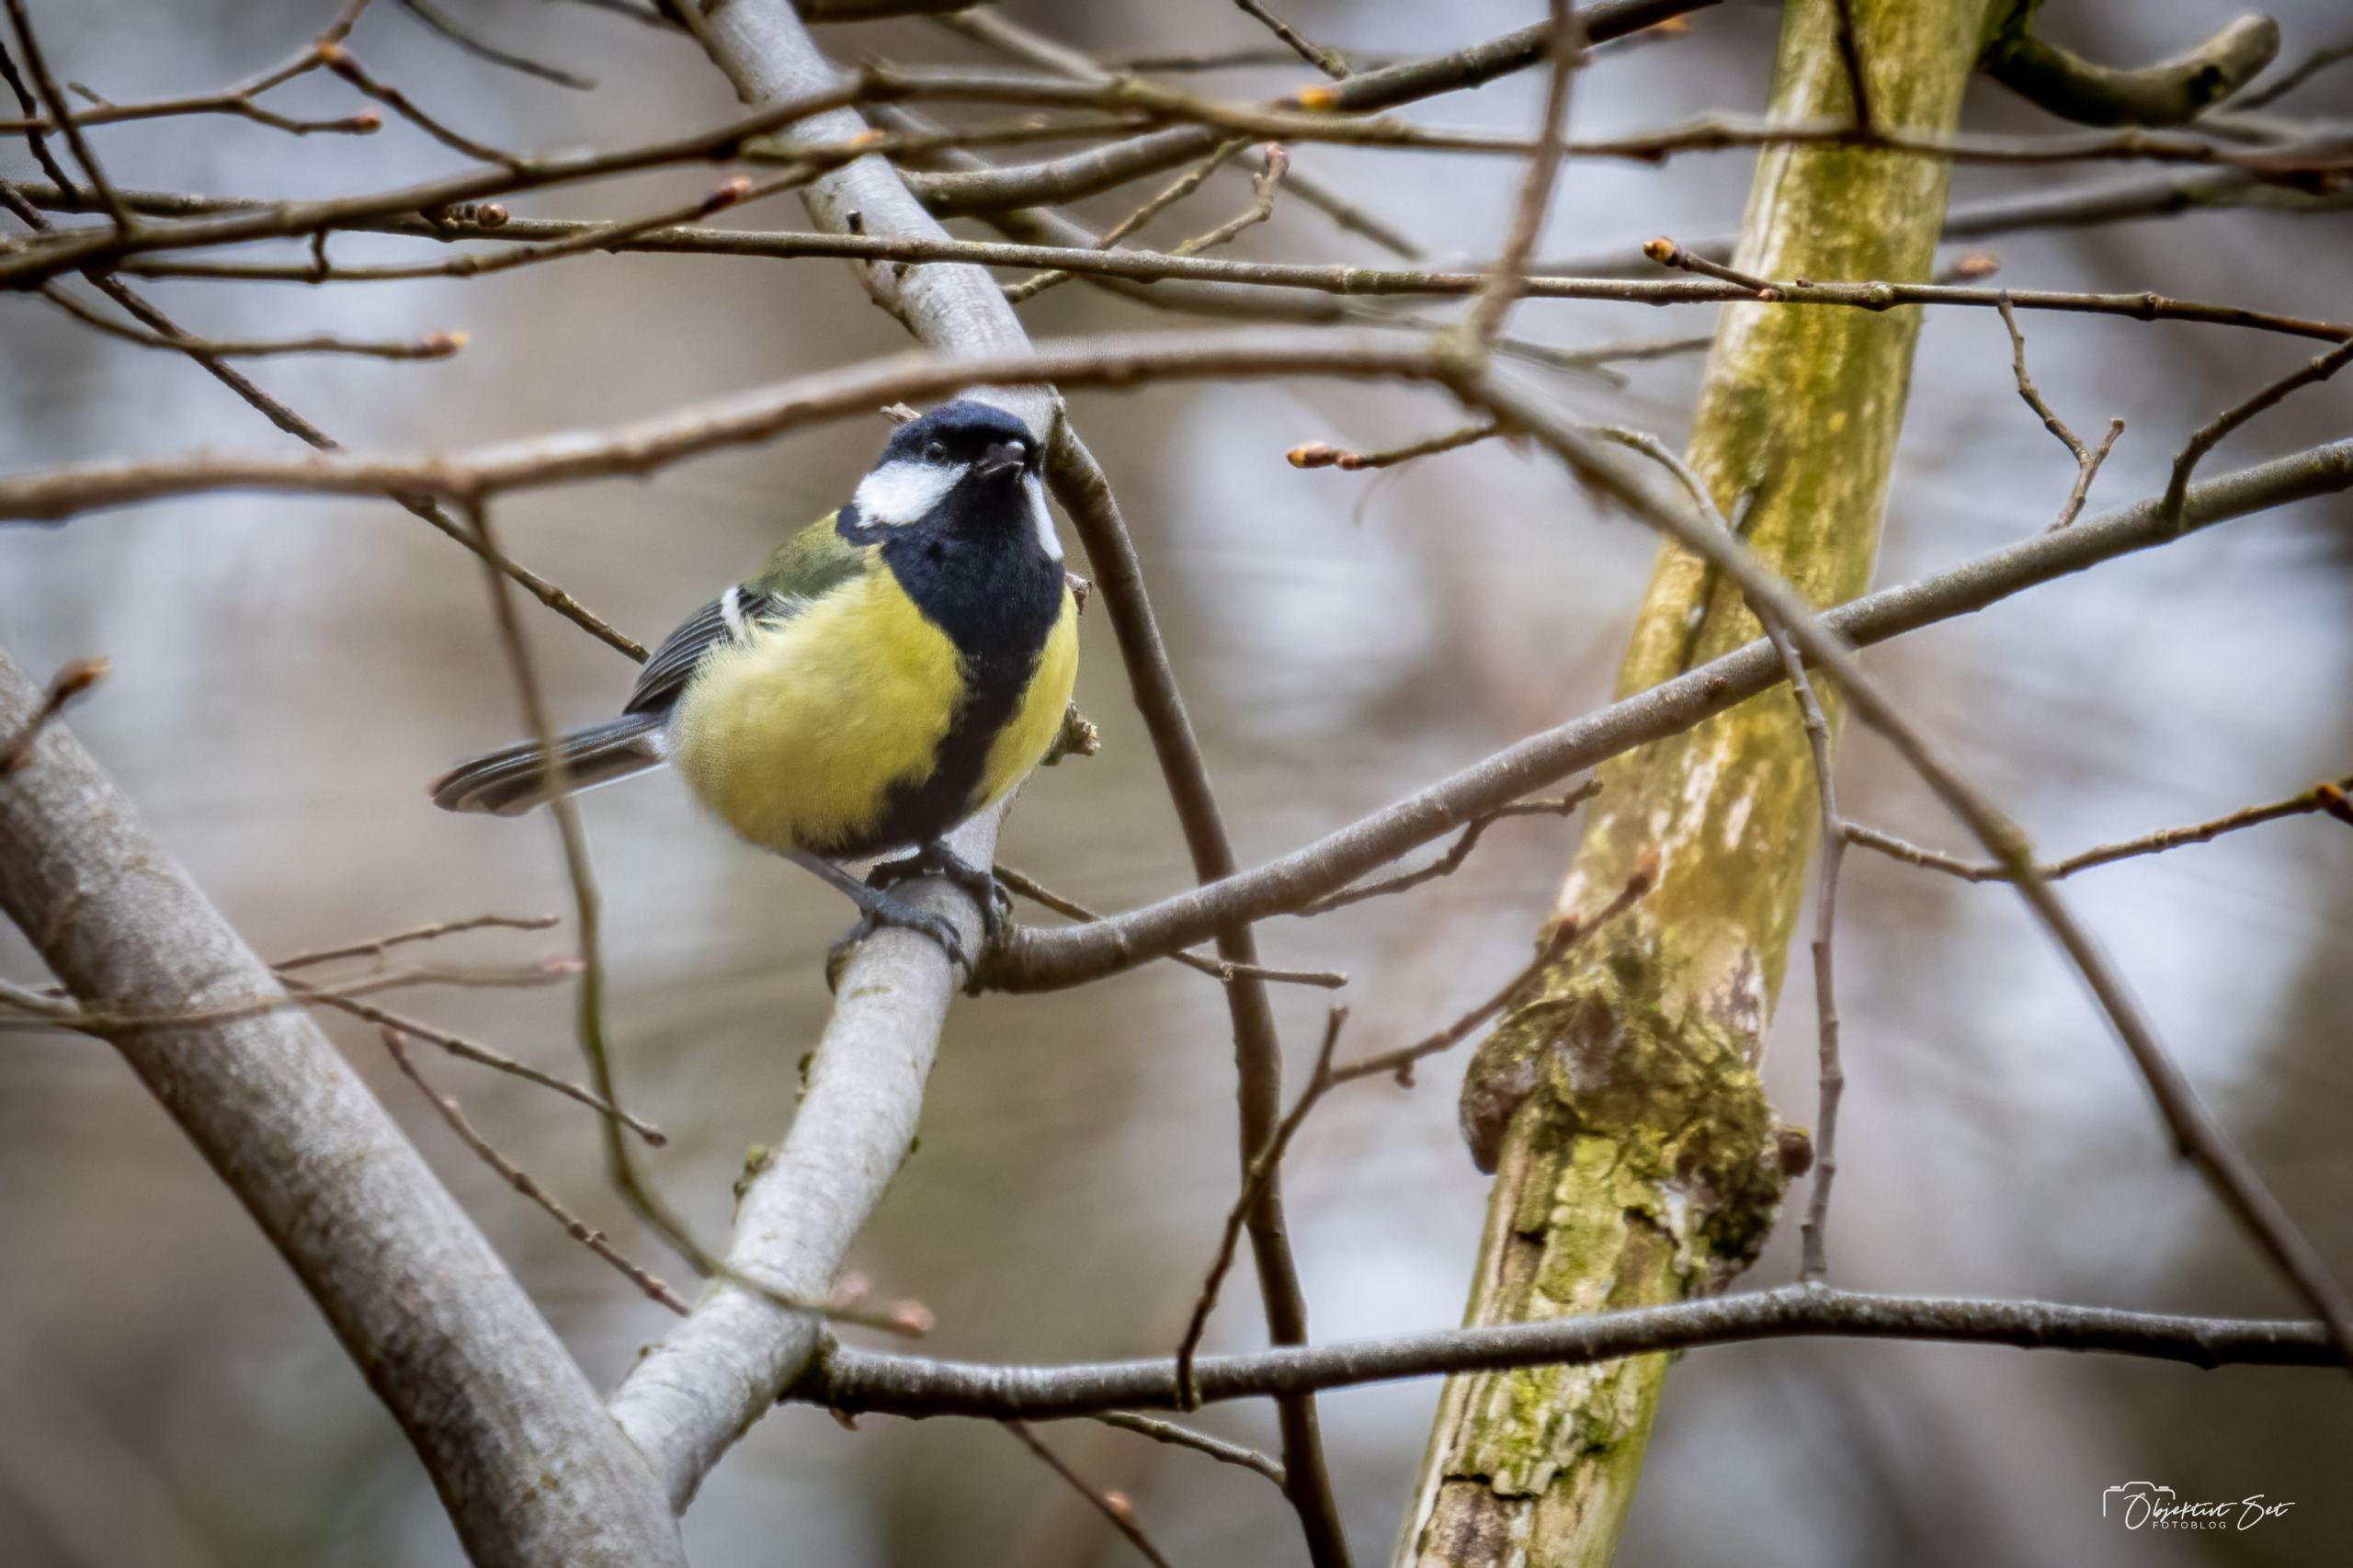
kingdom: Animalia
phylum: Chordata
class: Aves
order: Passeriformes
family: Paridae
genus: Parus
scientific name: Parus major
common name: Musvit
